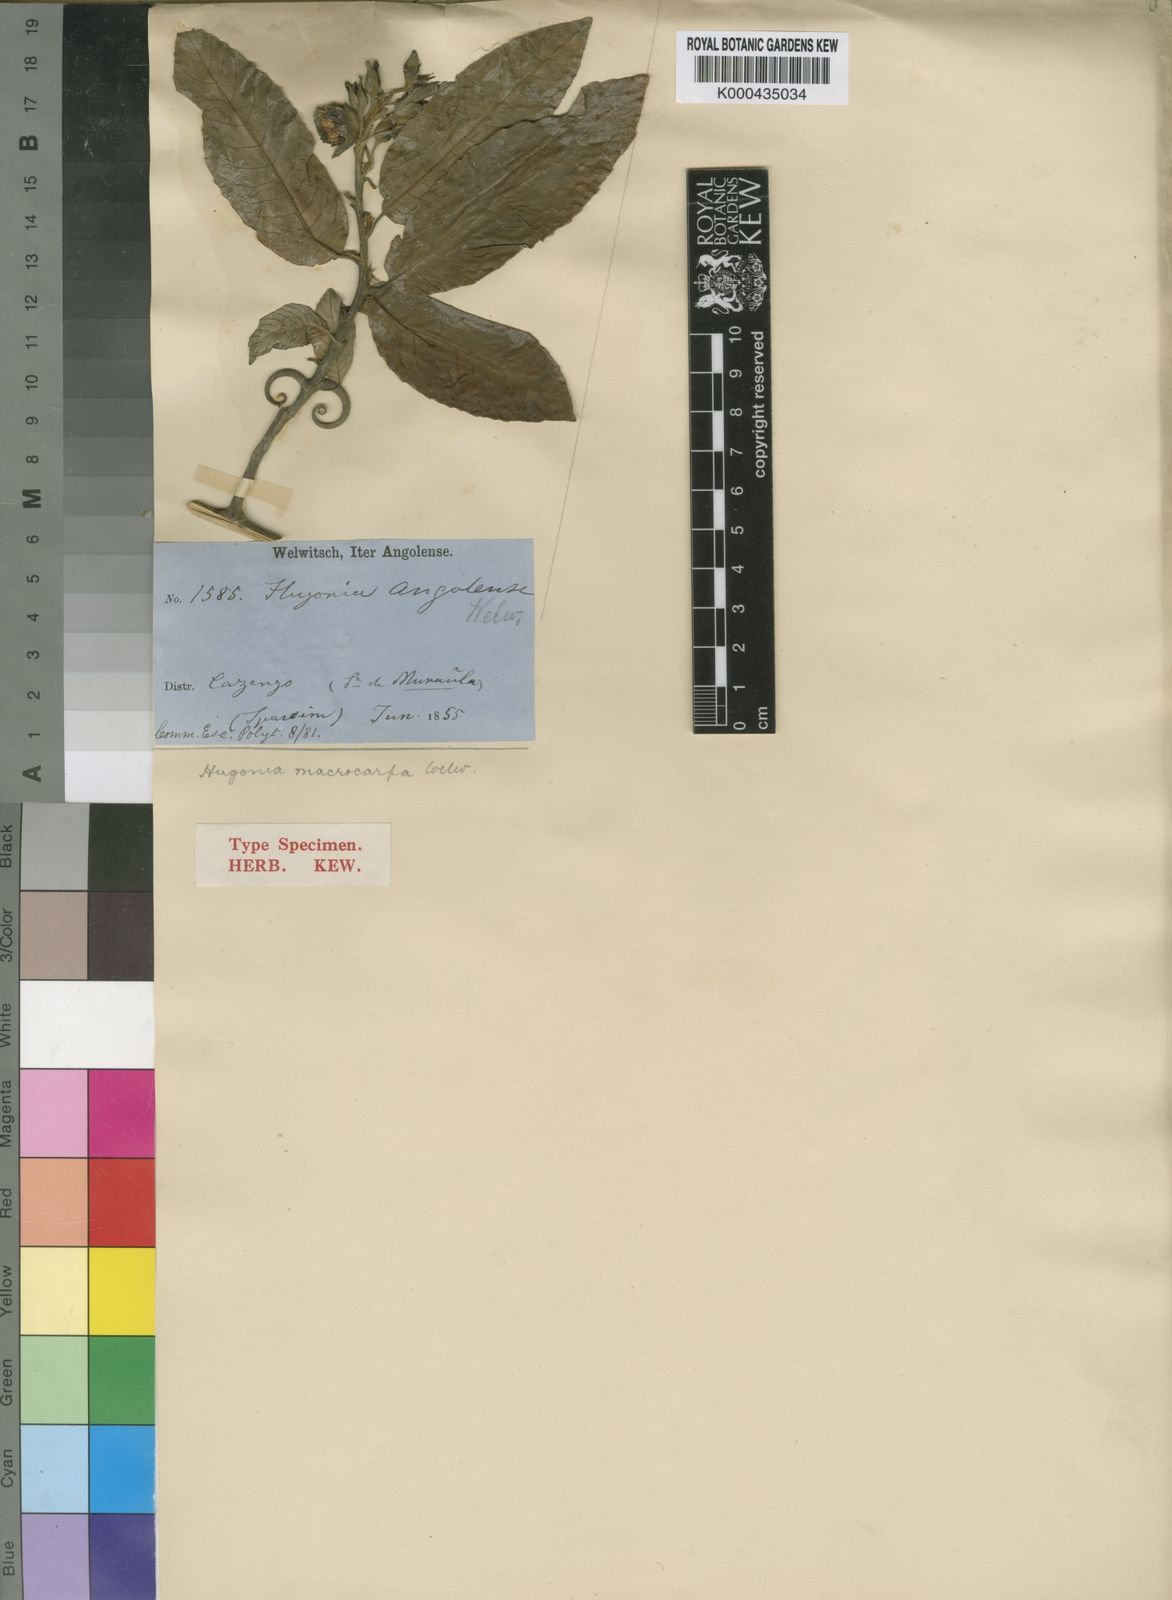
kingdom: Plantae
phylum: Tracheophyta
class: Magnoliopsida
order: Malpighiales
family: Linaceae
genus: Hugonia
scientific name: Hugonia macrocarpa
